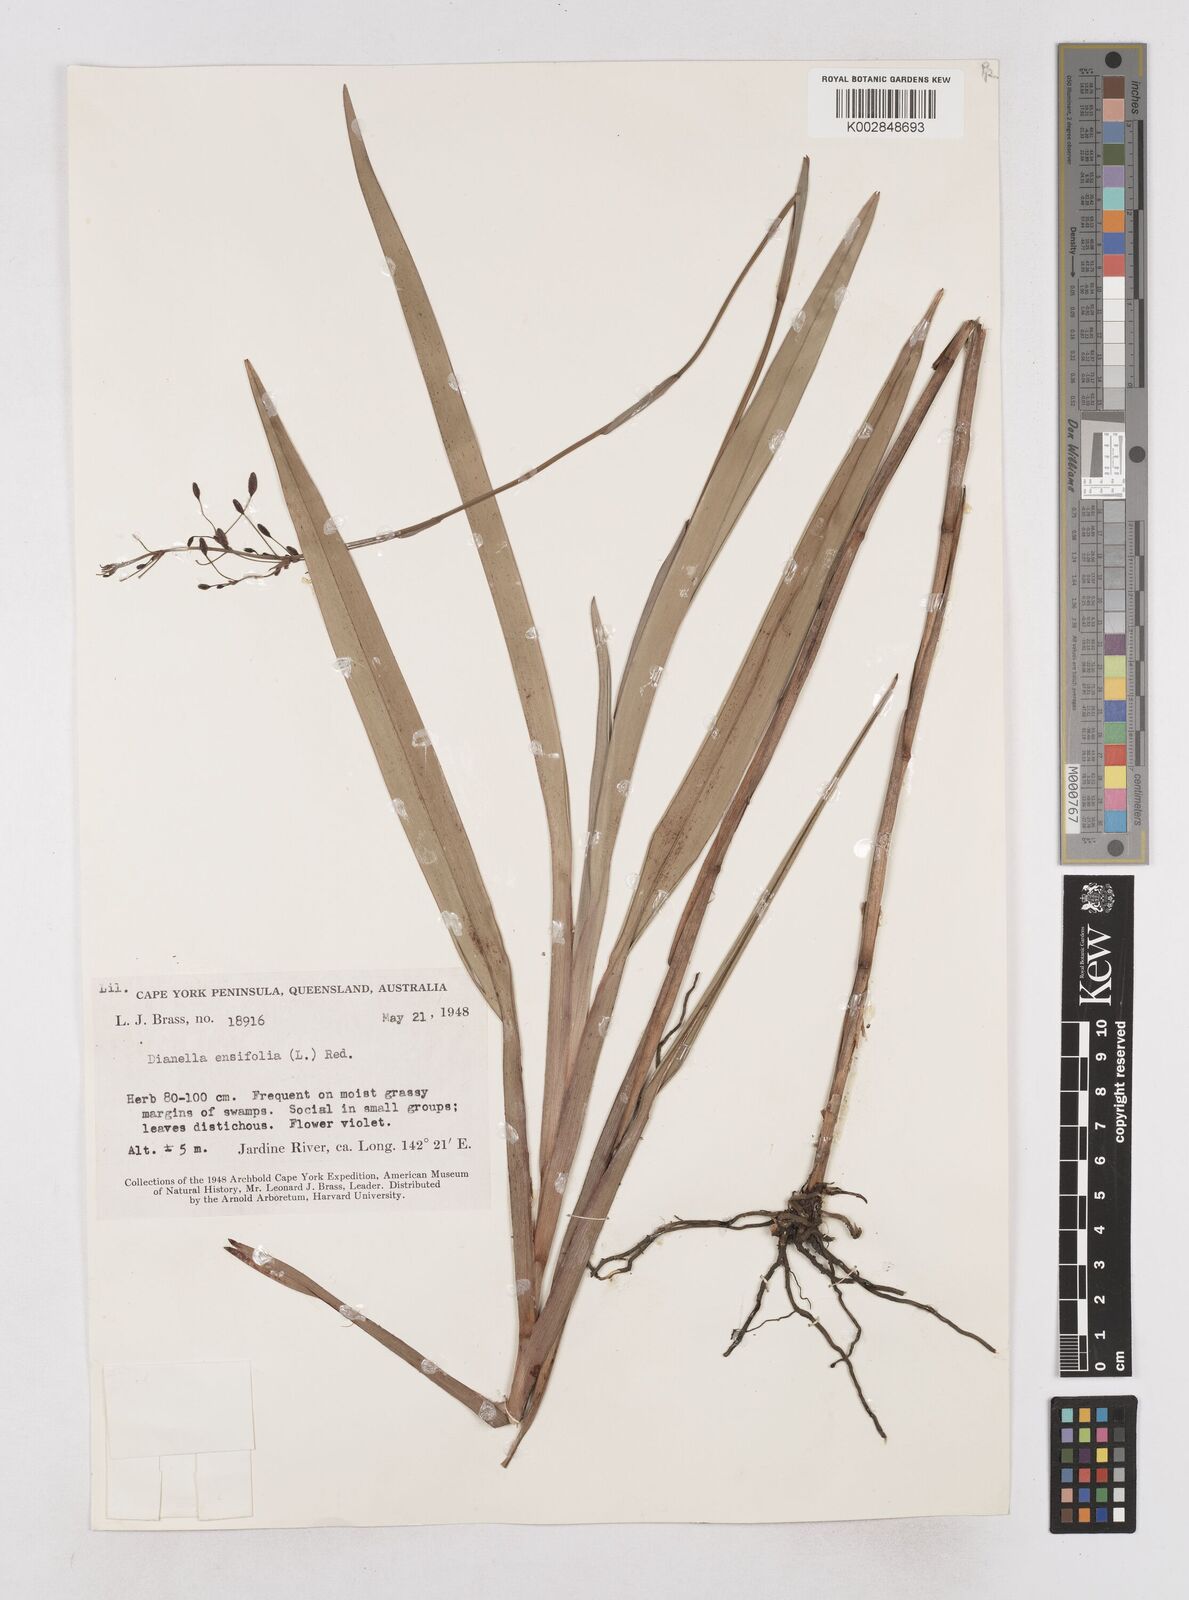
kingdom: Plantae
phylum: Tracheophyta
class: Liliopsida
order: Asparagales
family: Asphodelaceae
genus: Dianella
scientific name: Dianella ensifolia
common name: New zealand lilyplant
